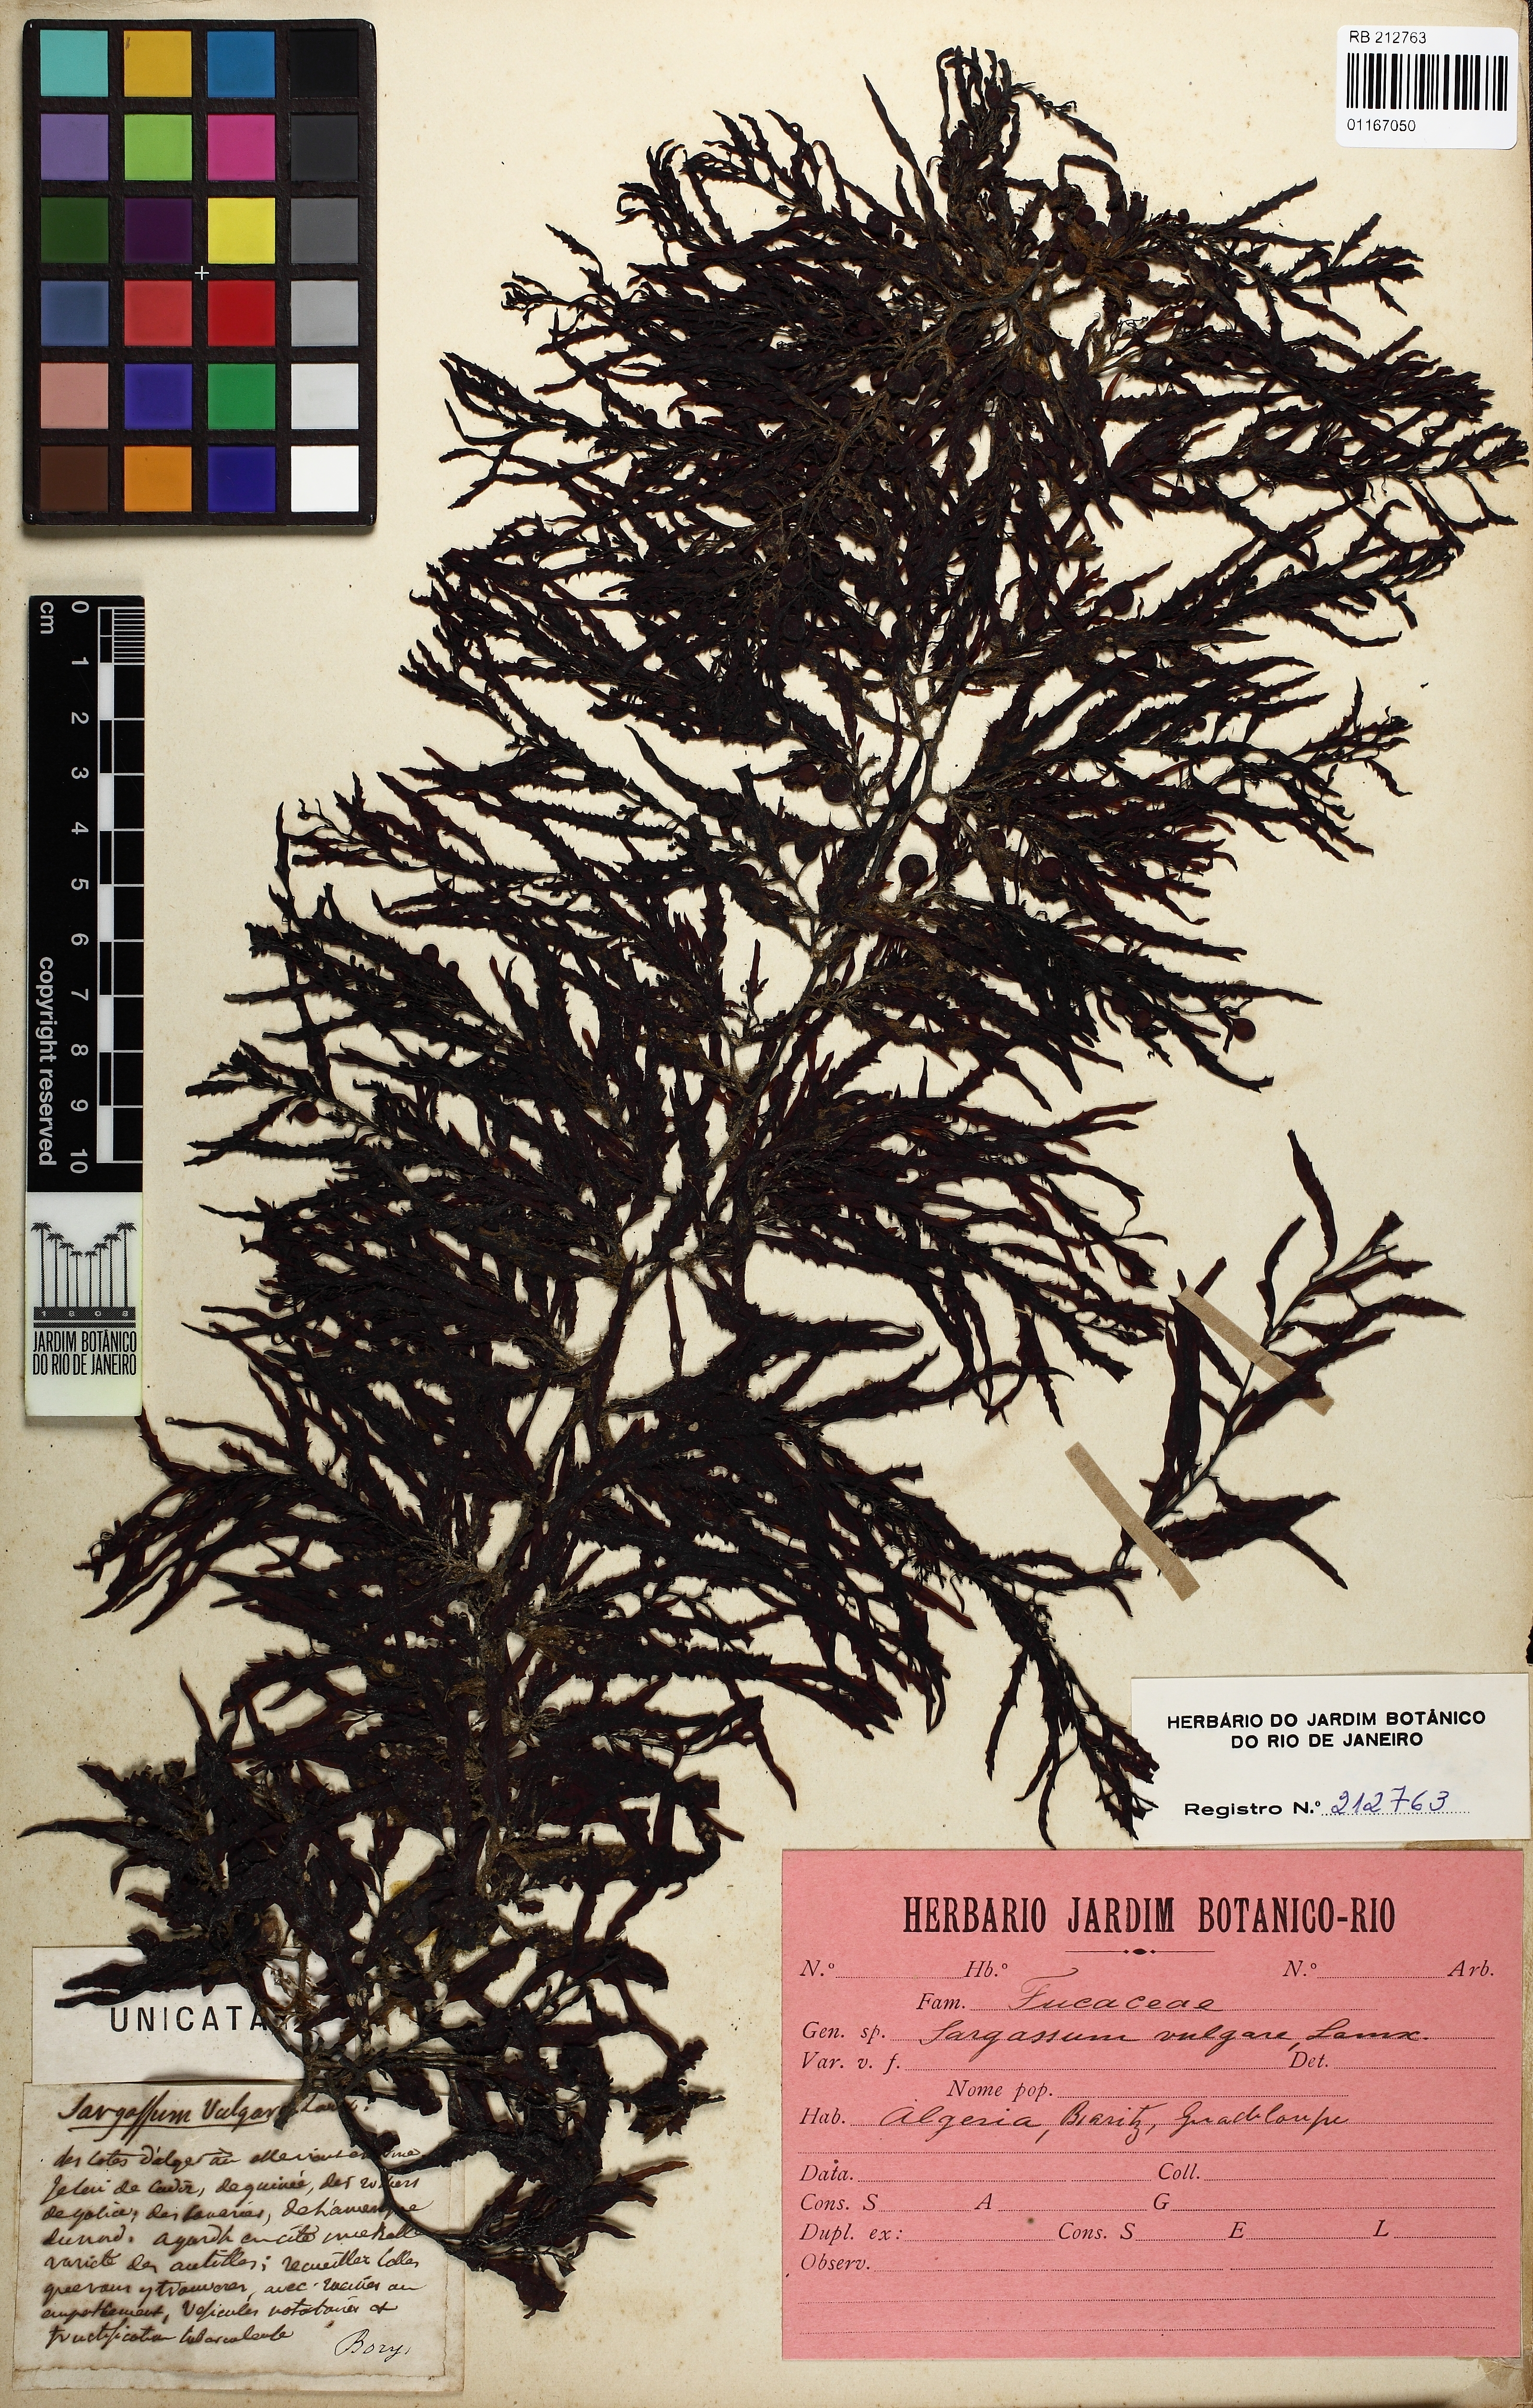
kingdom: Chromista
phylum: Ochrophyta
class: Phaeophyceae
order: Fucales
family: Sargassaceae
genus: Sargassum
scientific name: Sargassum vulgare
